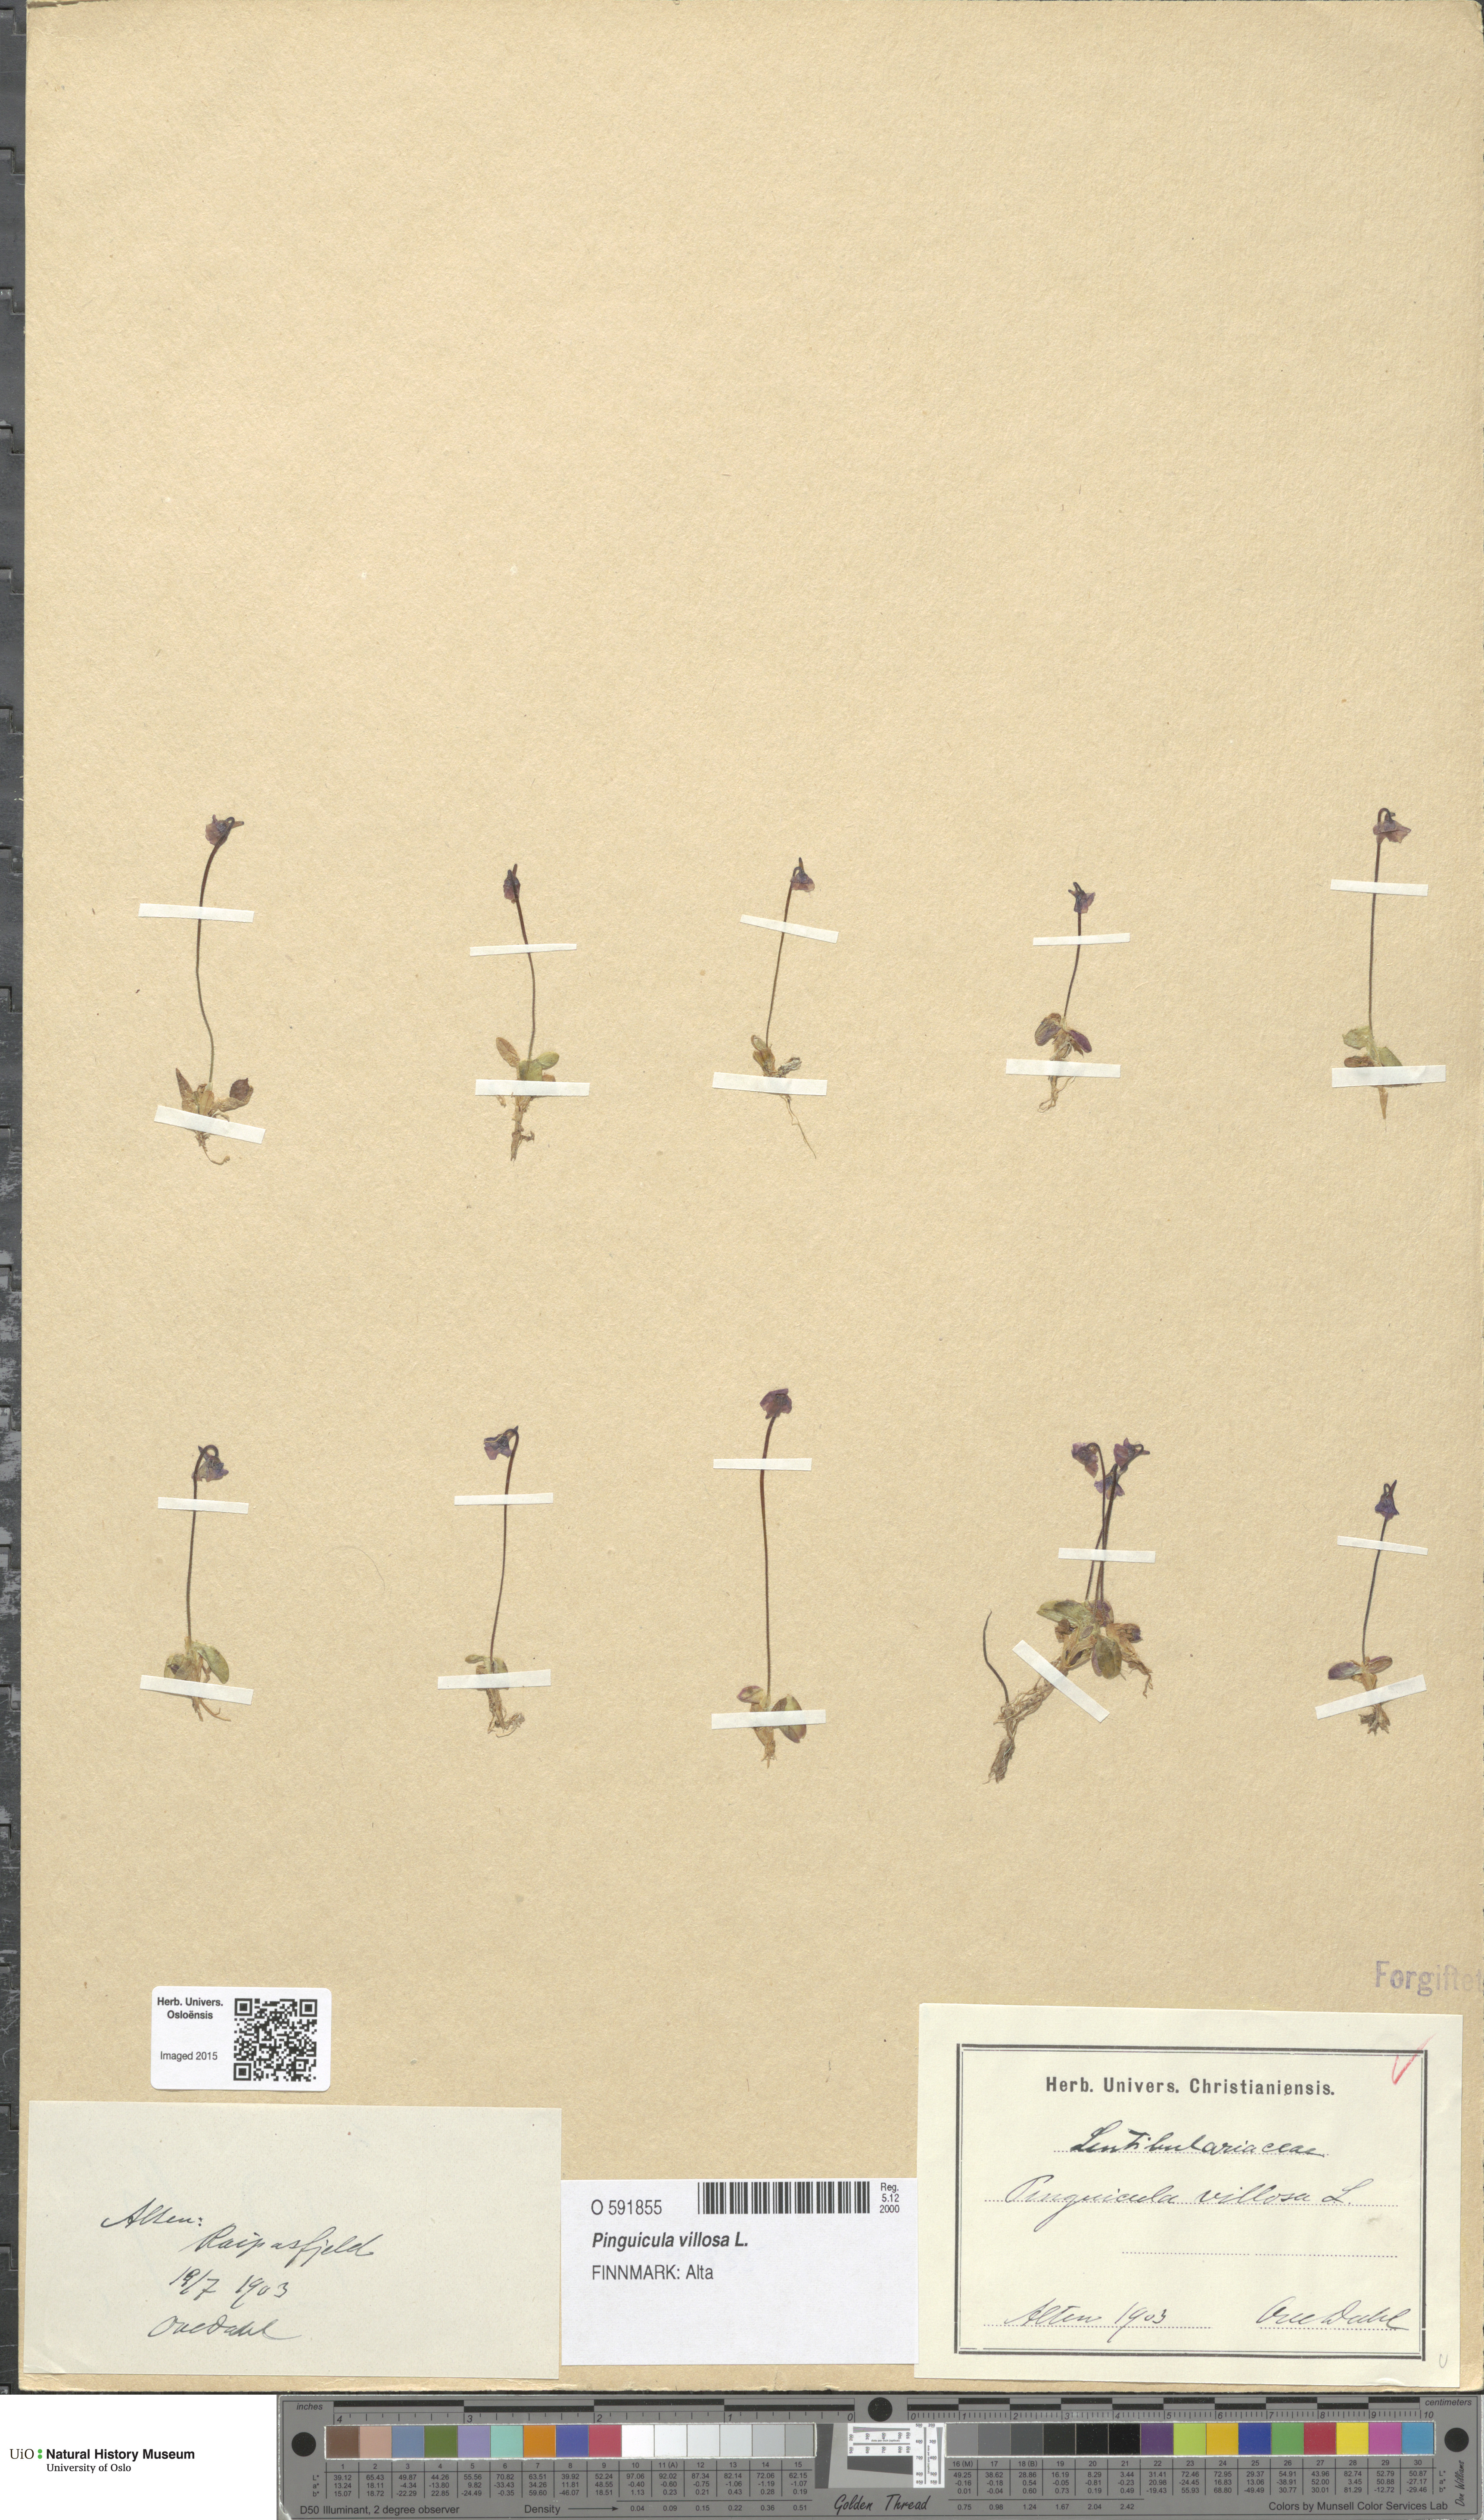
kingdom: Plantae
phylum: Tracheophyta
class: Magnoliopsida
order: Lamiales
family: Lentibulariaceae
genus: Pinguicula
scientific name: Pinguicula villosa
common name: Hairy butterwort
